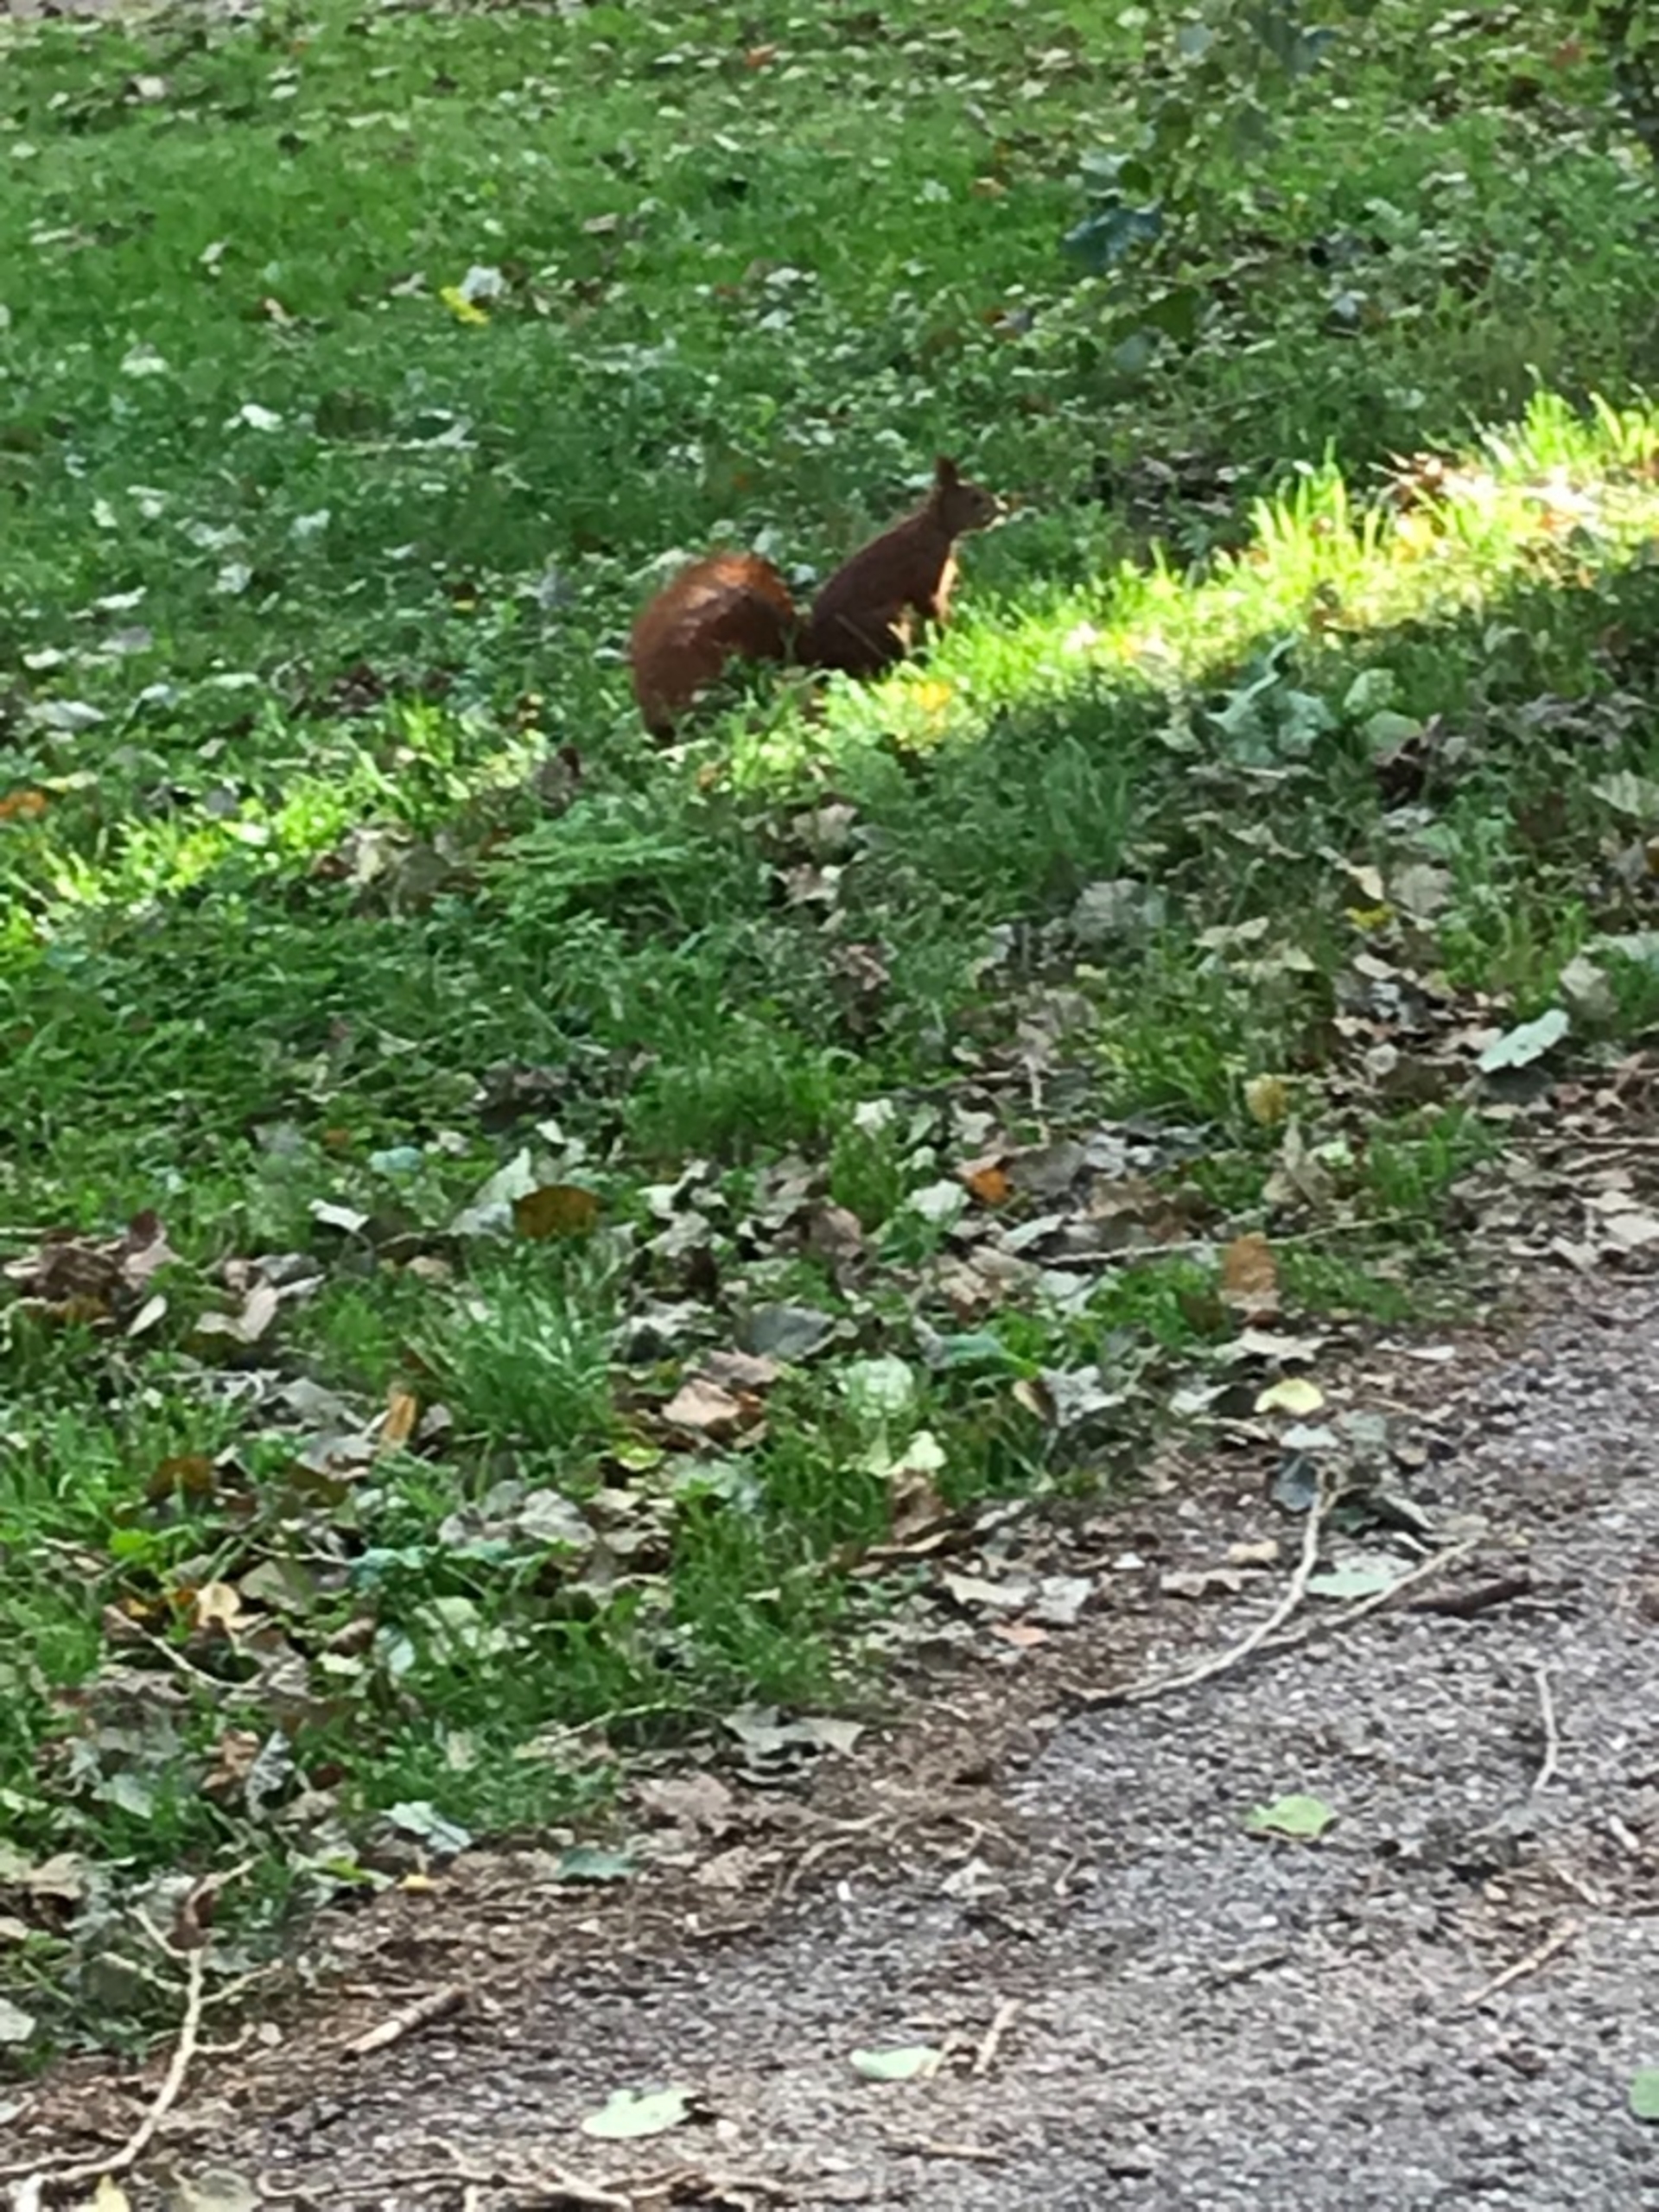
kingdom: Animalia
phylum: Chordata
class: Mammalia
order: Rodentia
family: Sciuridae
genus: Sciurus
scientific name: Sciurus vulgaris
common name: Egern
